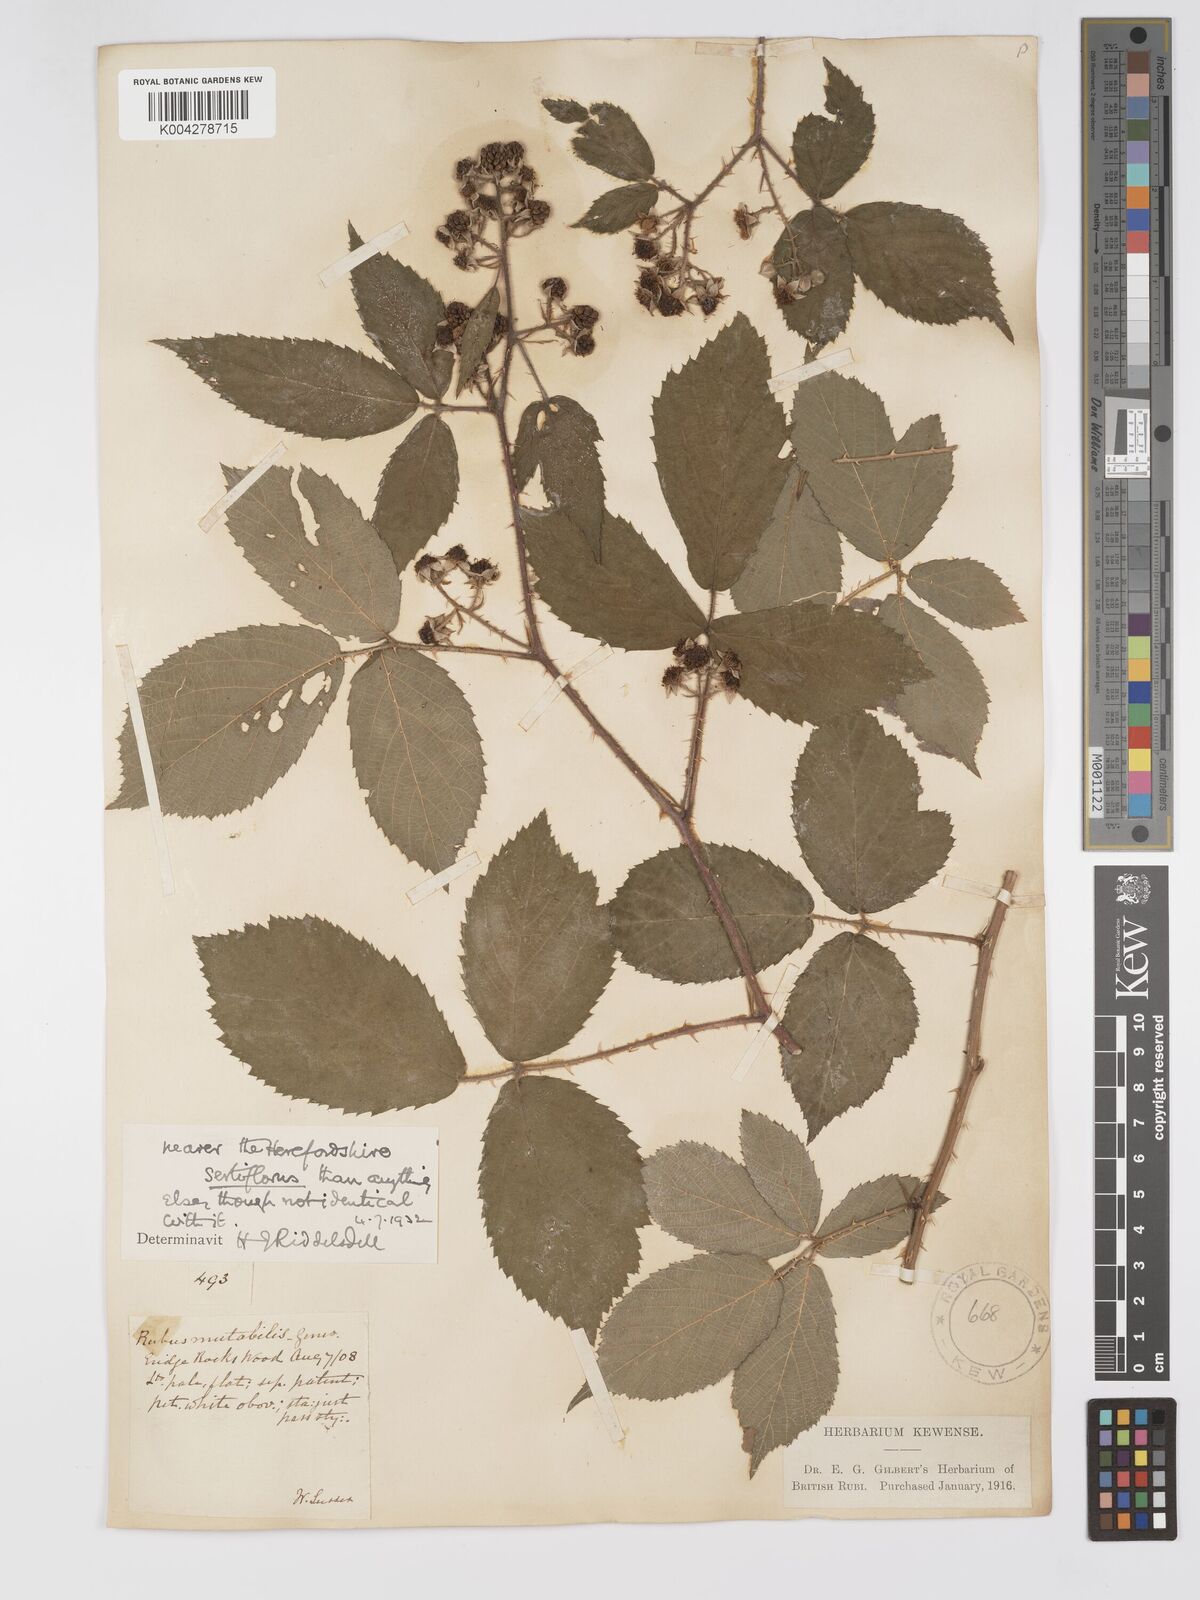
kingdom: Plantae
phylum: Tracheophyta
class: Magnoliopsida
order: Rosales
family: Rosaceae
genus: Rubus
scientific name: Rubus
